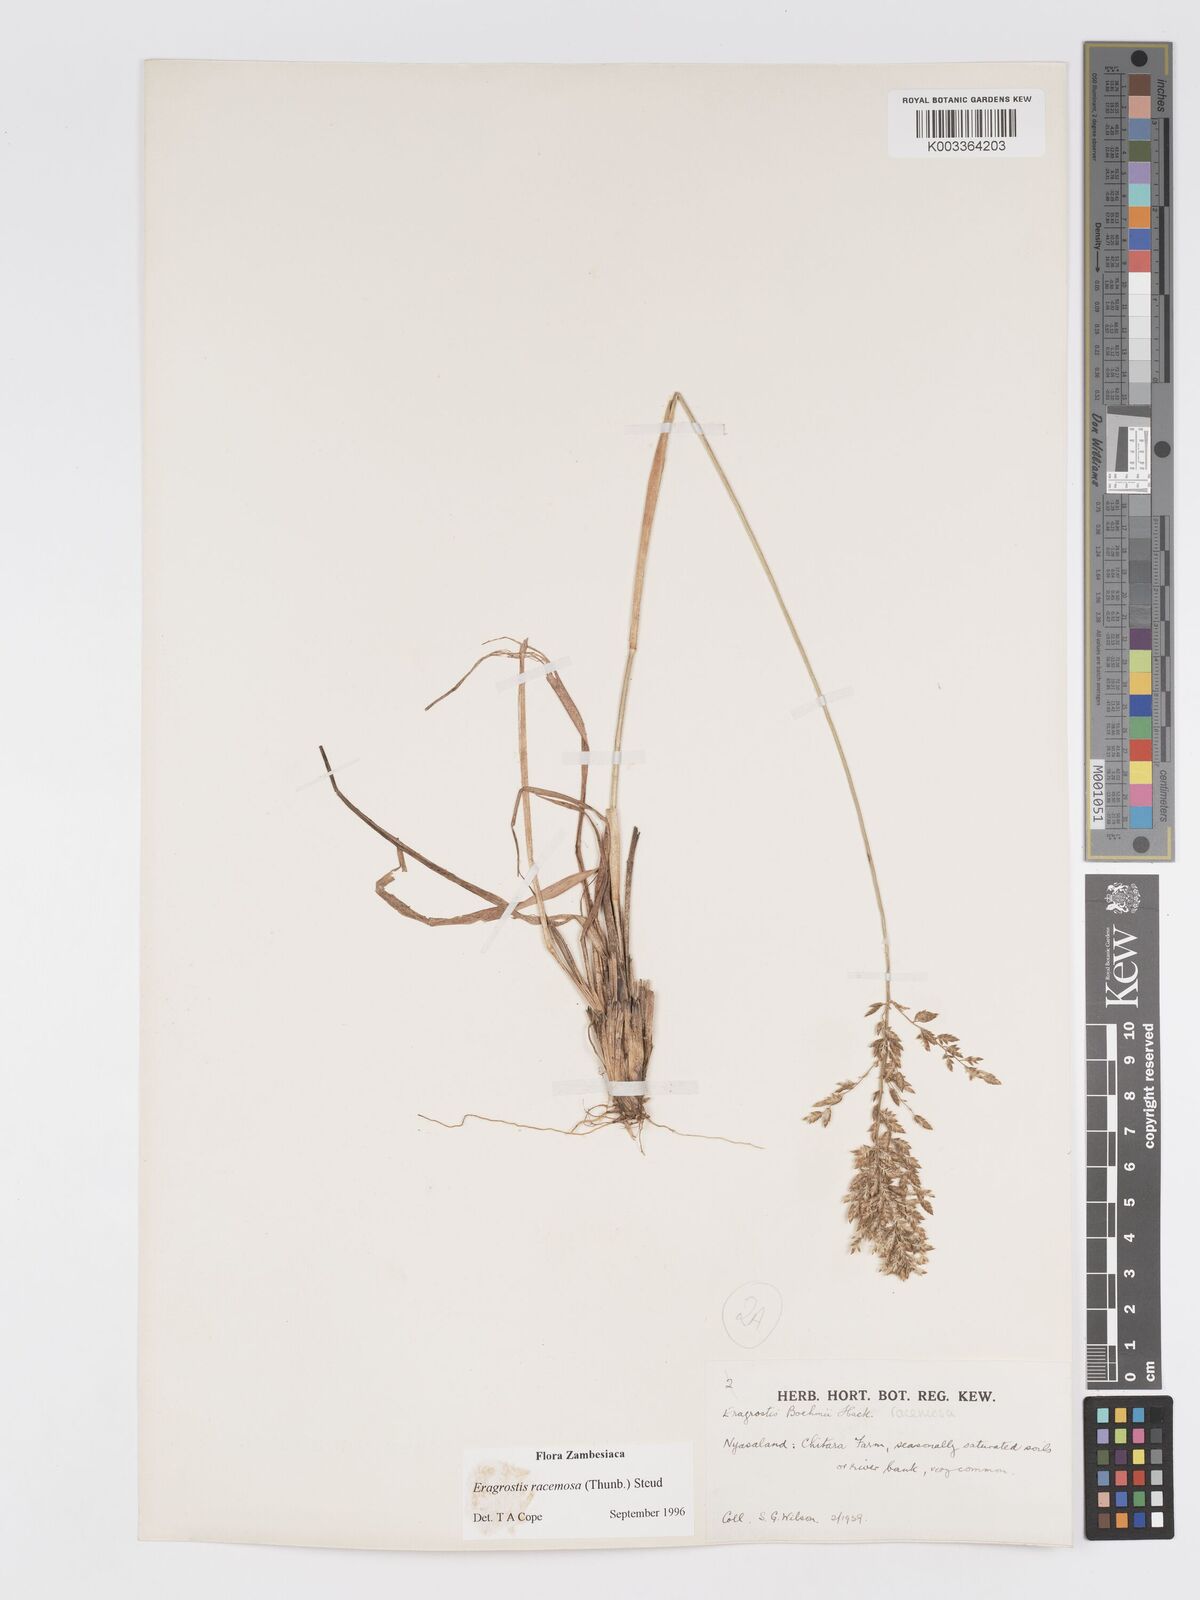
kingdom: Plantae
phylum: Tracheophyta
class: Liliopsida
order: Poales
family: Poaceae
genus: Eragrostis
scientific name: Eragrostis racemosa
